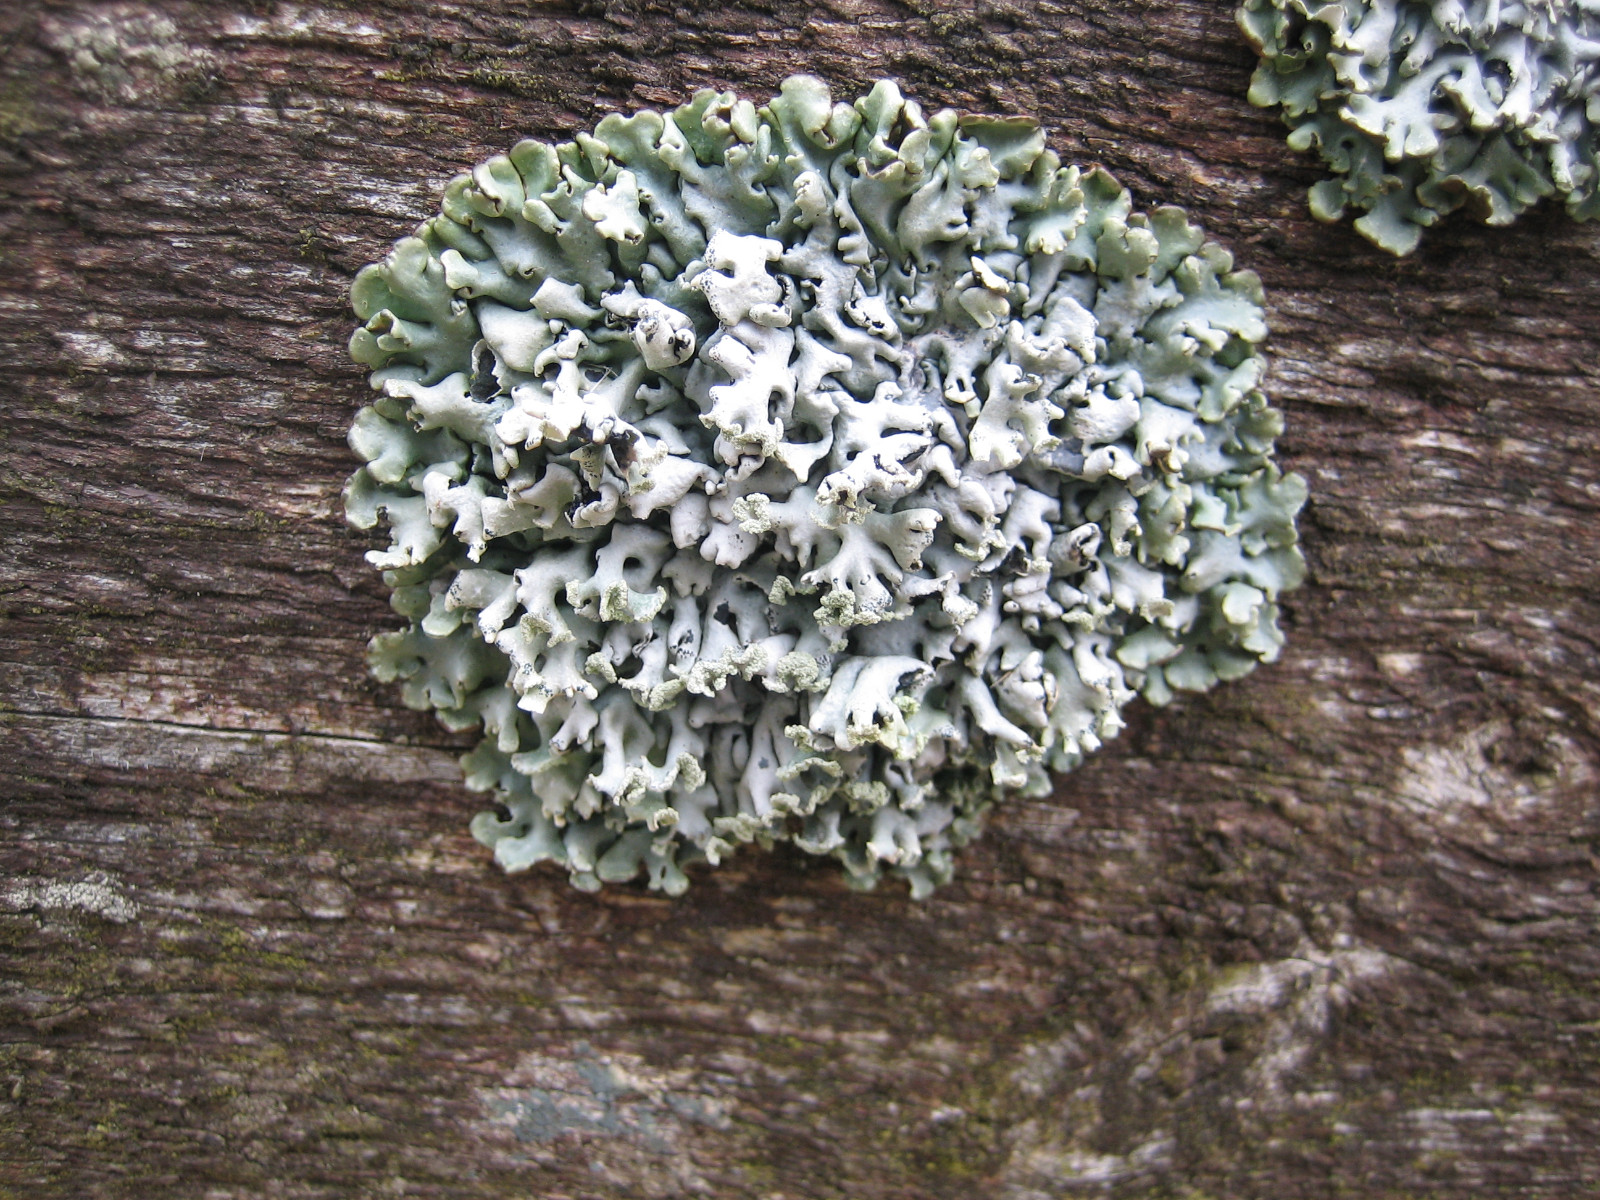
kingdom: Fungi
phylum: Ascomycota
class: Lecanoromycetes
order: Lecanorales
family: Parmeliaceae
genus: Hypogymnia
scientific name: Hypogymnia physodes
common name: almindelig kvistlav
